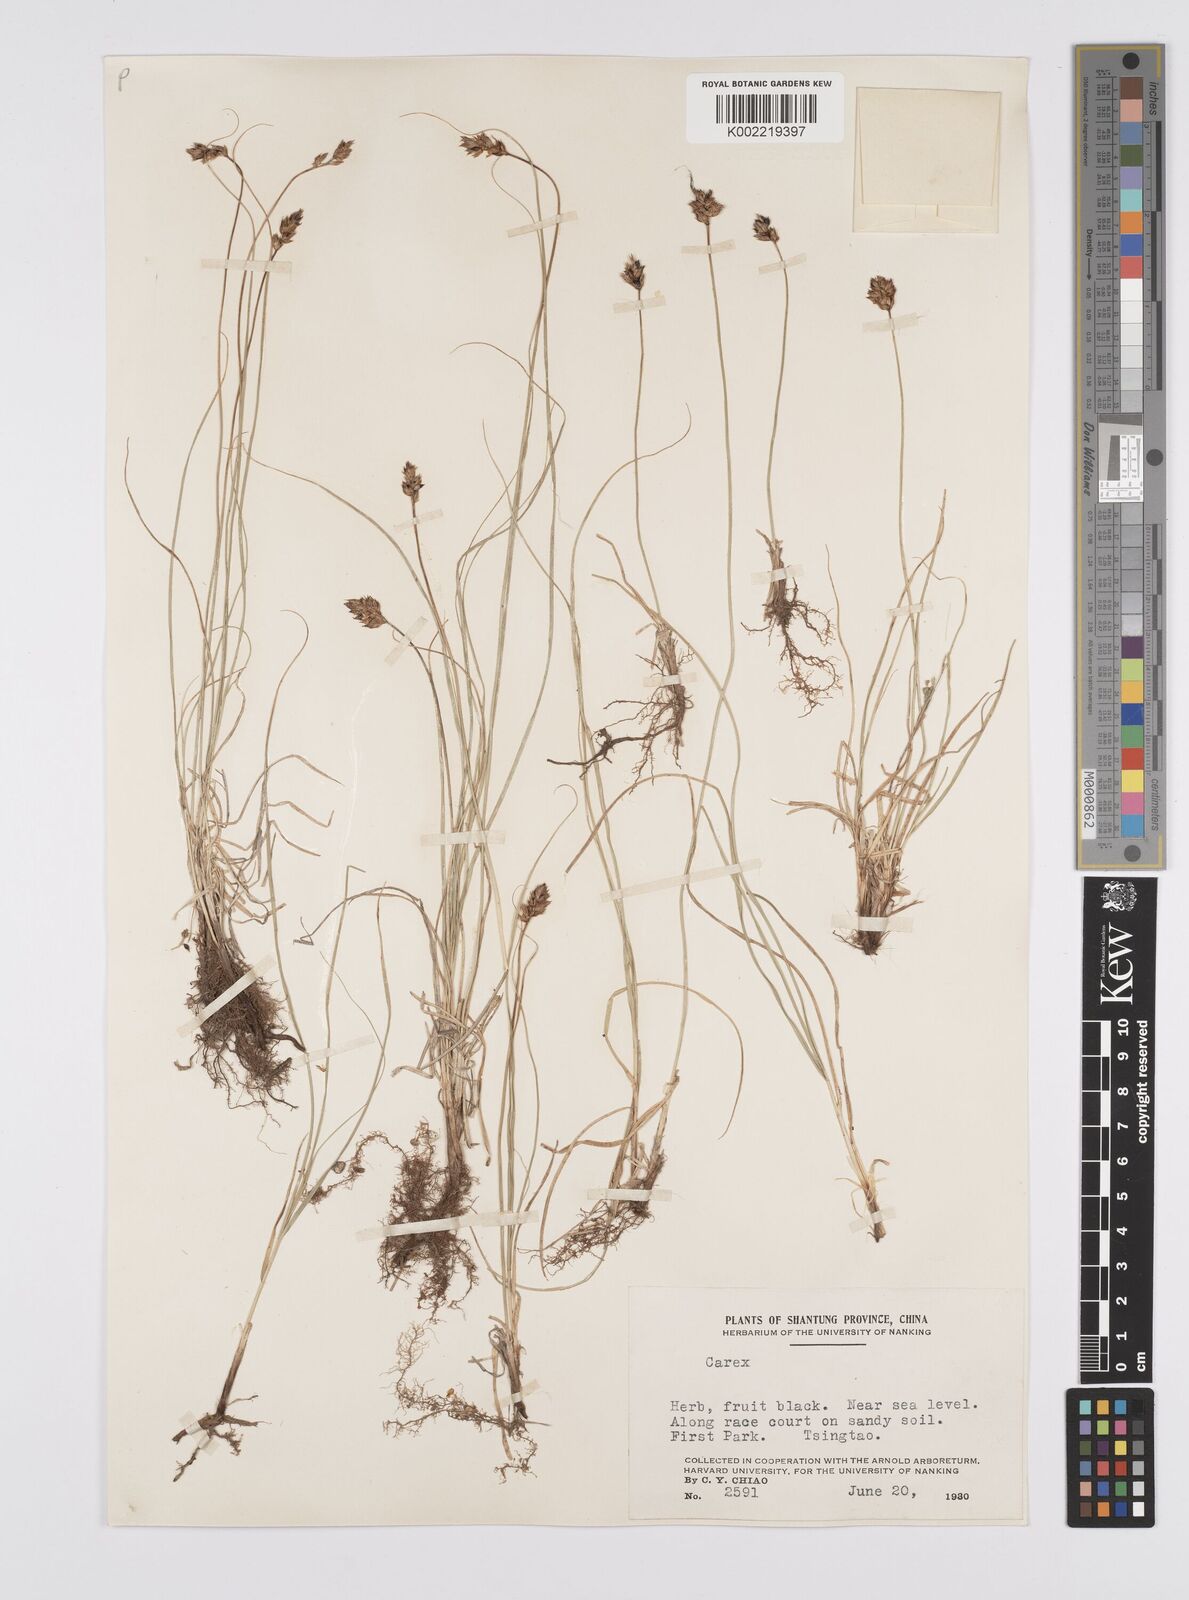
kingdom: Plantae
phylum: Tracheophyta
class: Liliopsida
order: Poales
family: Cyperaceae
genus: Carex
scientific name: Carex stenophylla
